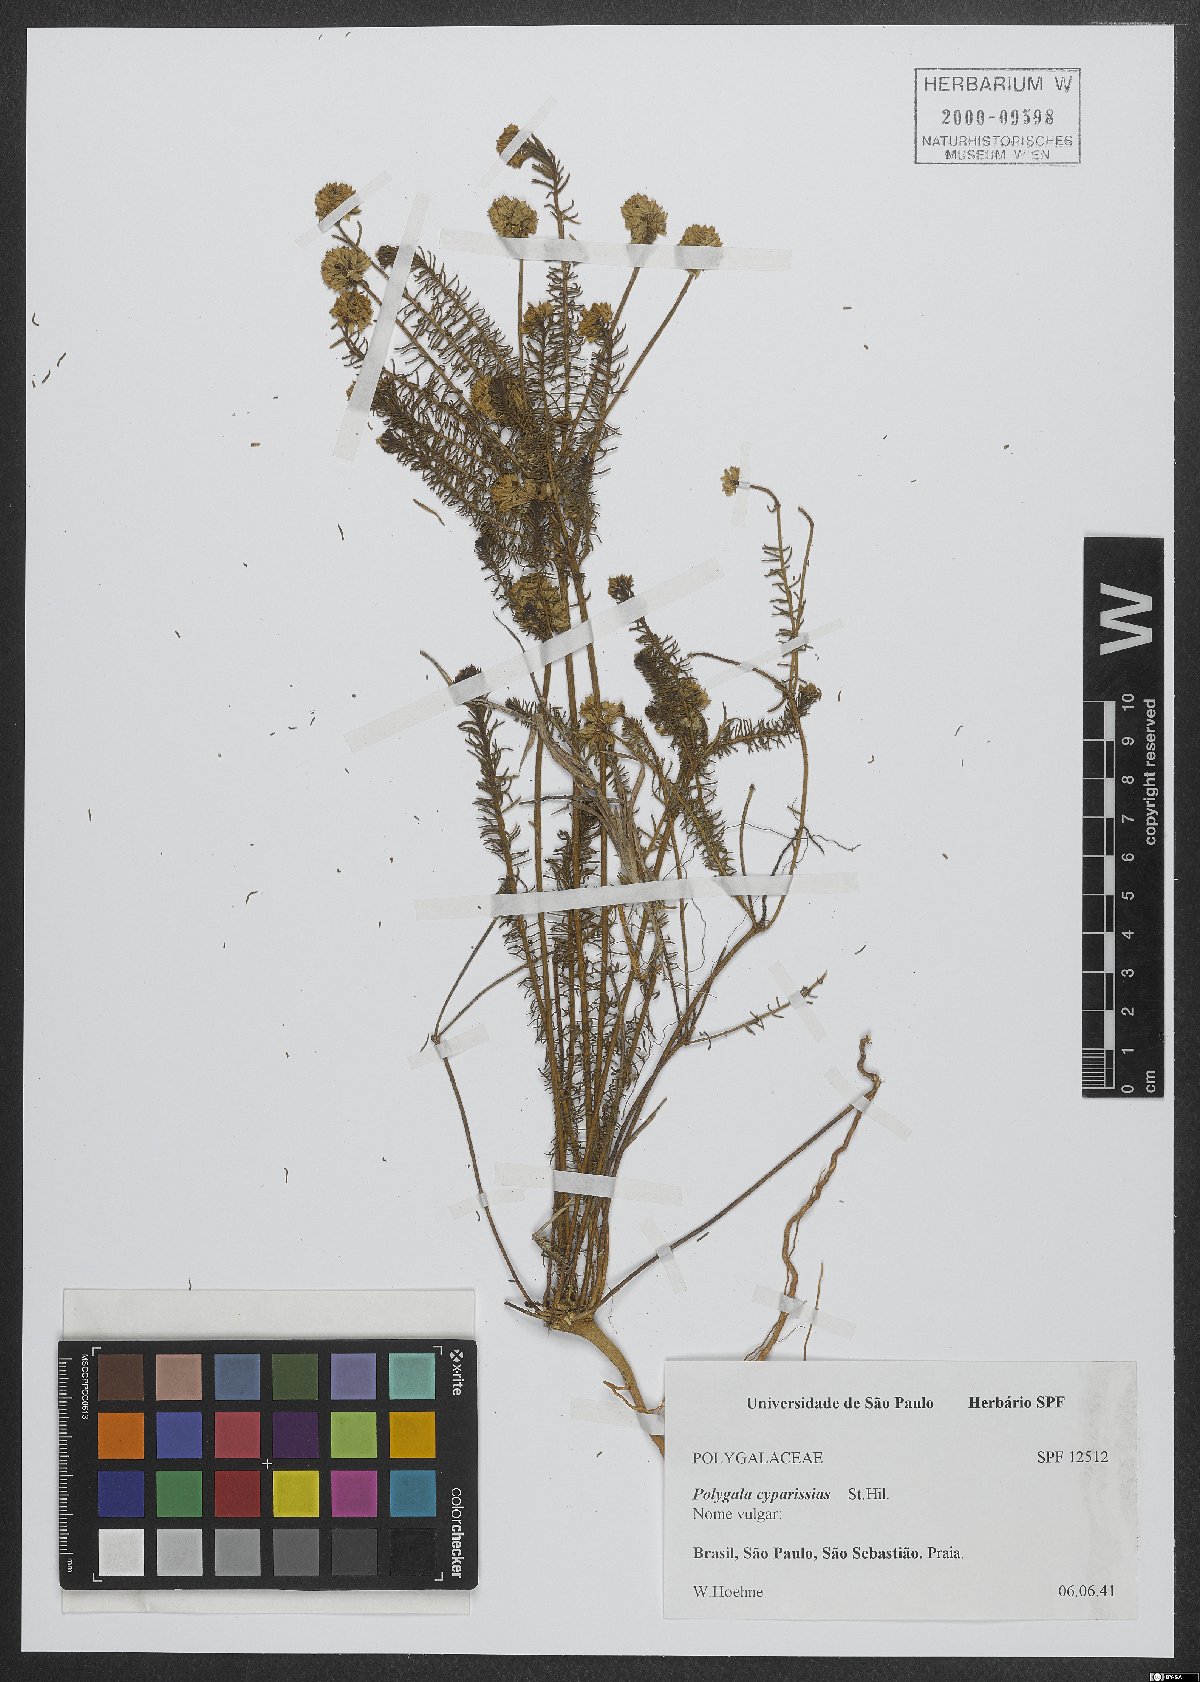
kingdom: Plantae
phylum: Tracheophyta
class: Magnoliopsida
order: Fabales
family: Polygalaceae
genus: Polygala
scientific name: Polygala cyparissias
